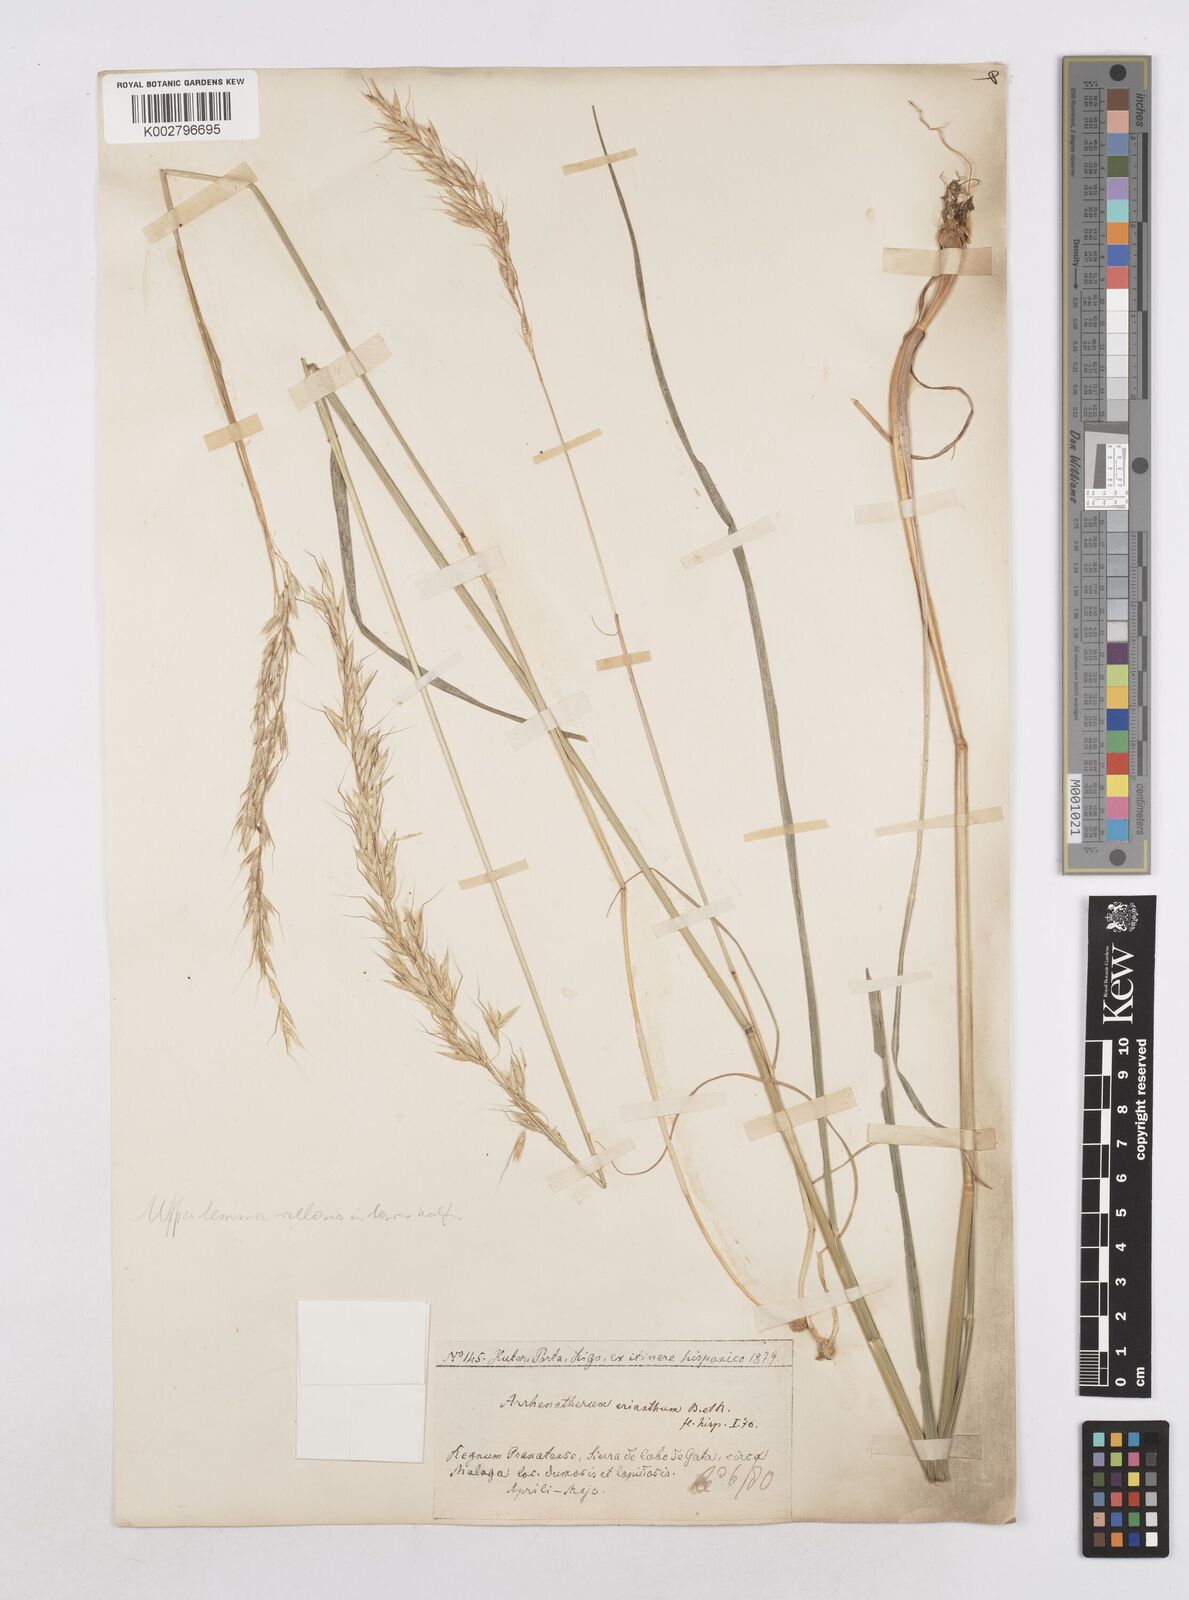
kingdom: Plantae
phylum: Tracheophyta
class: Liliopsida
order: Poales
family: Poaceae
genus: Arrhenatherum
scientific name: Arrhenatherum album
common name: Tall oat grass
